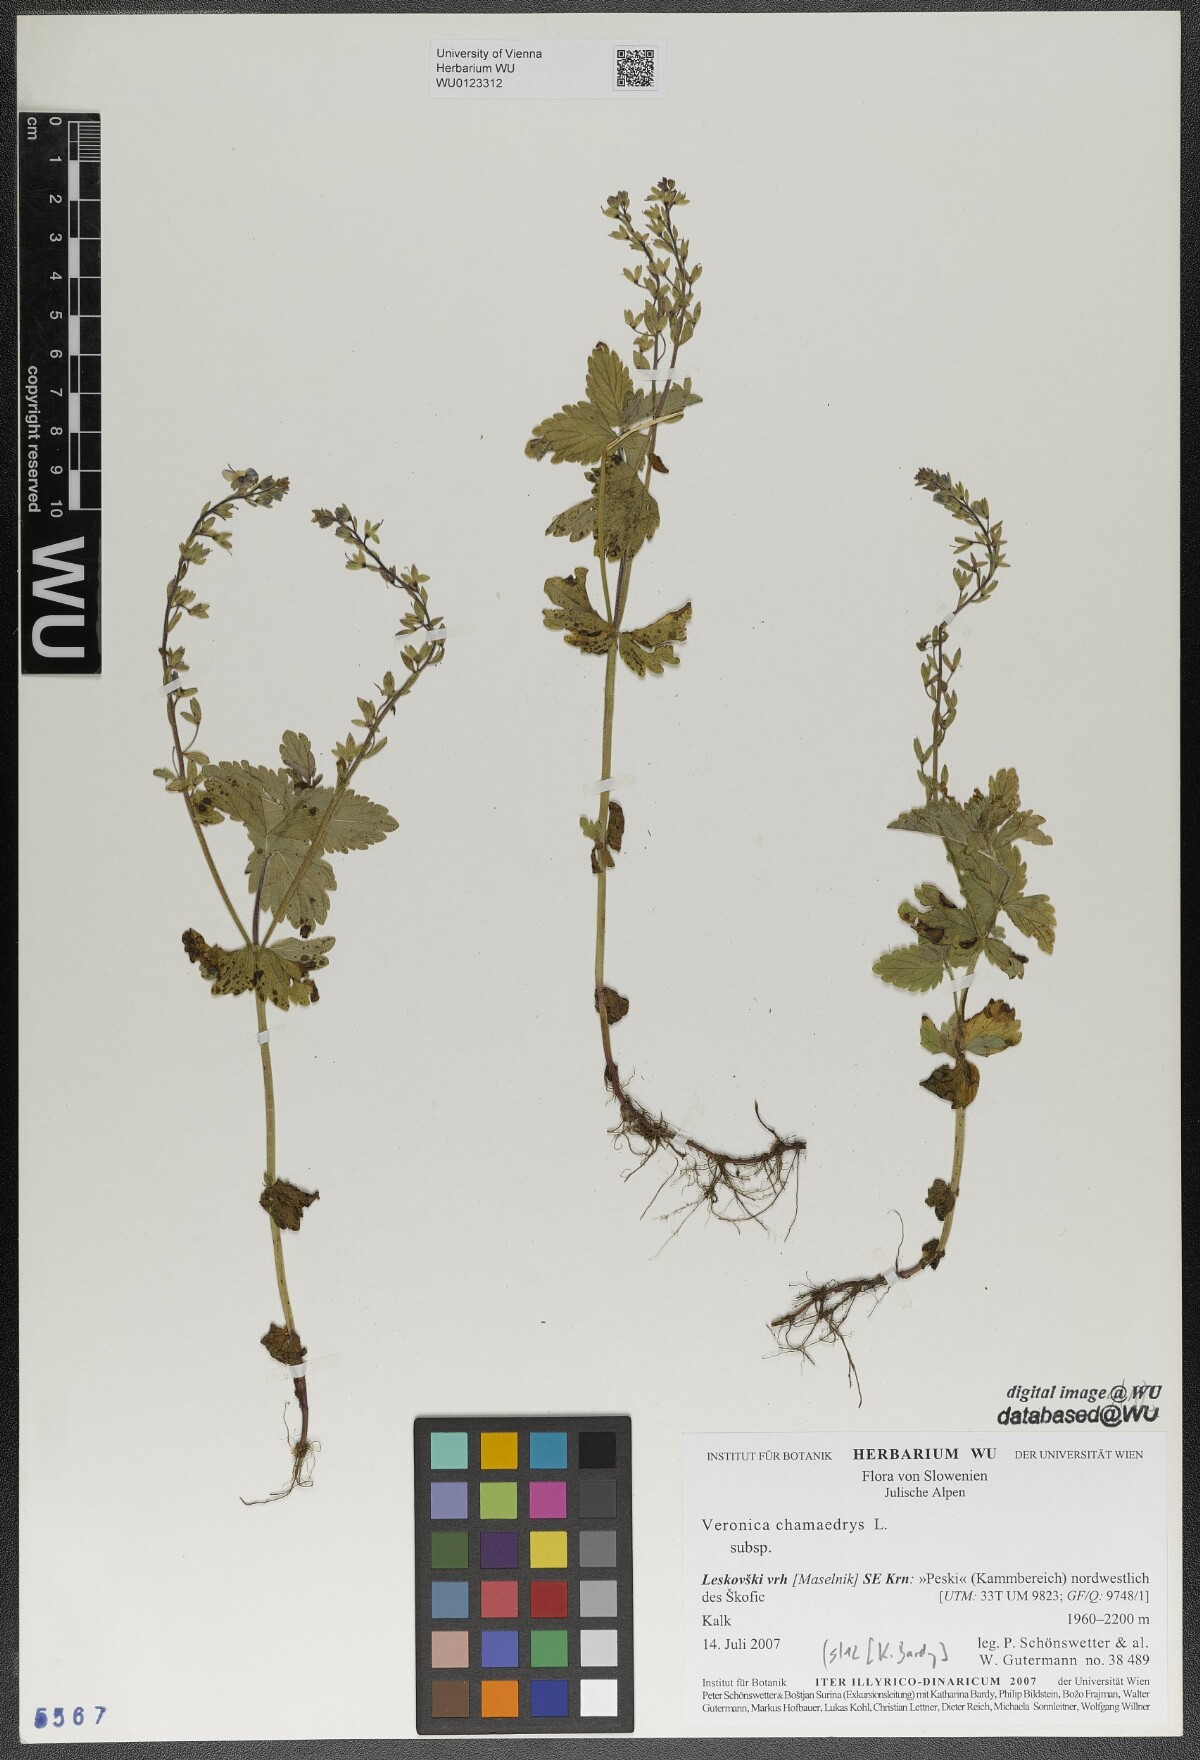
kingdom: Plantae
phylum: Tracheophyta
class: Magnoliopsida
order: Lamiales
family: Plantaginaceae
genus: Veronica
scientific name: Veronica chamaedrys
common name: Germander speedwell
